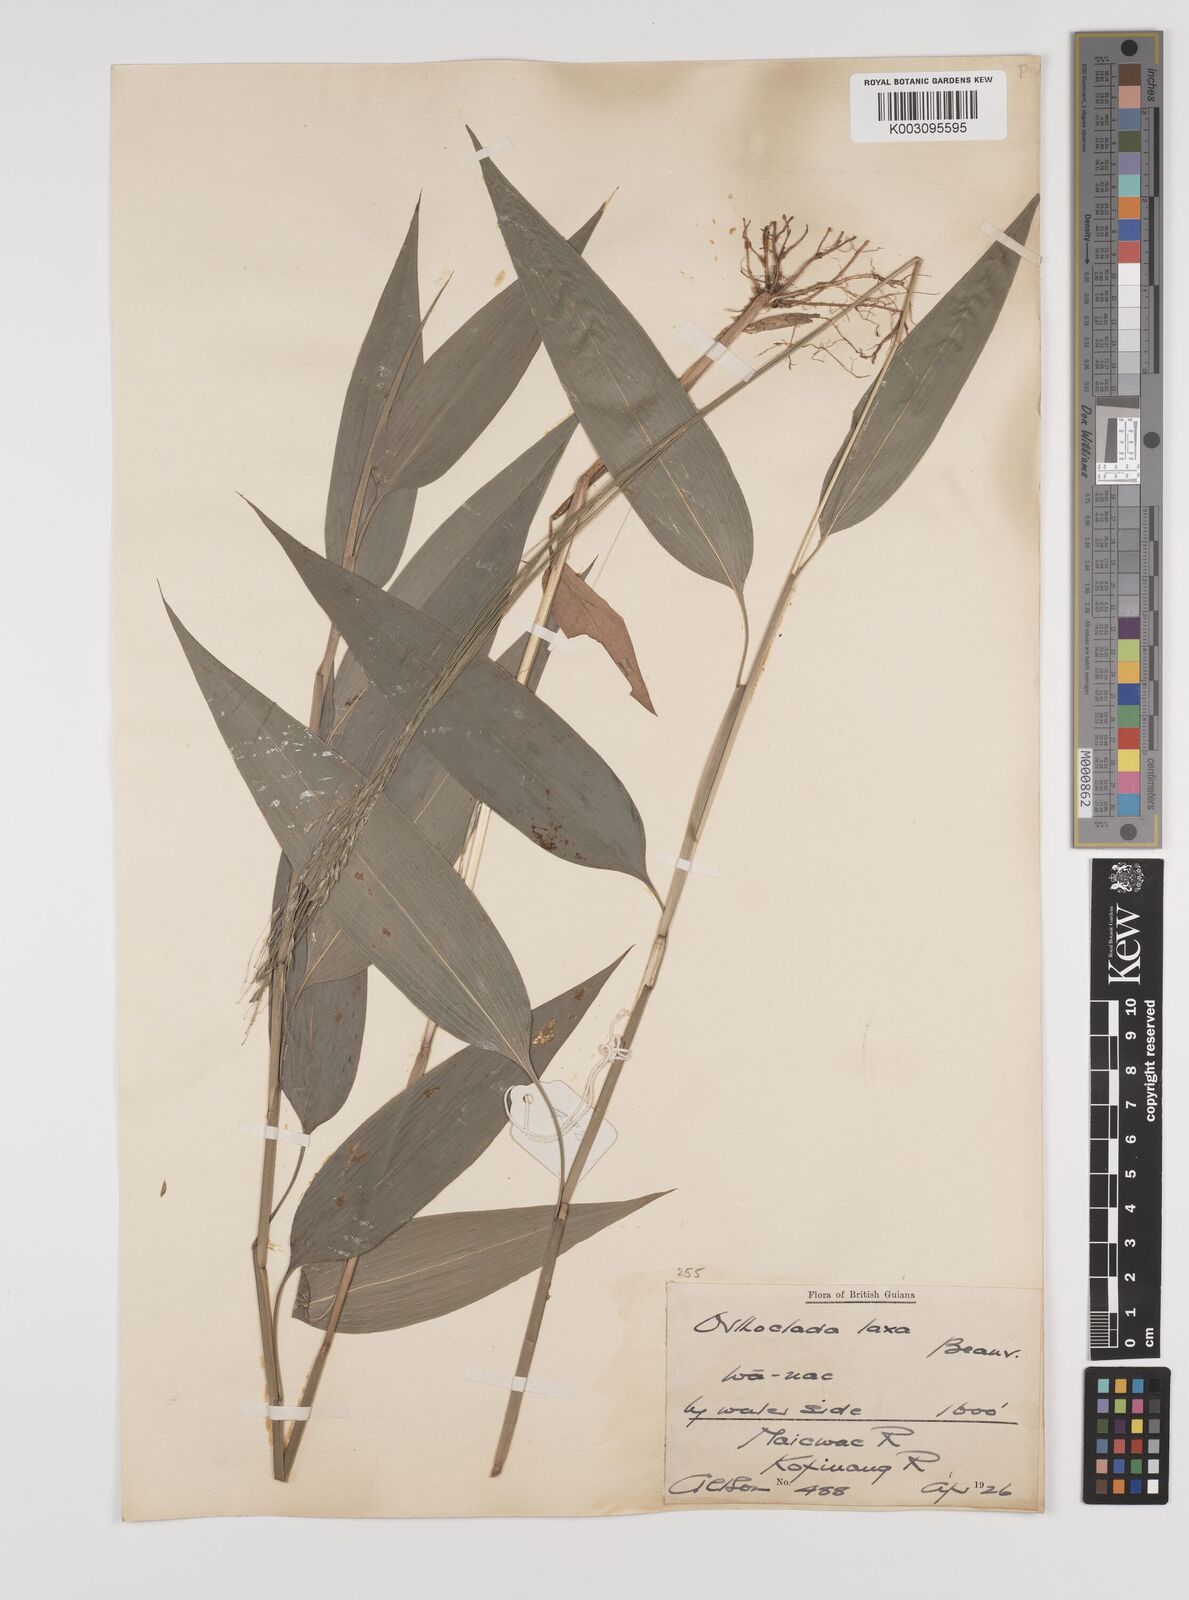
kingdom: Plantae
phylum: Tracheophyta
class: Liliopsida
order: Poales
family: Poaceae
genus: Orthoclada
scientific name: Orthoclada laxa
